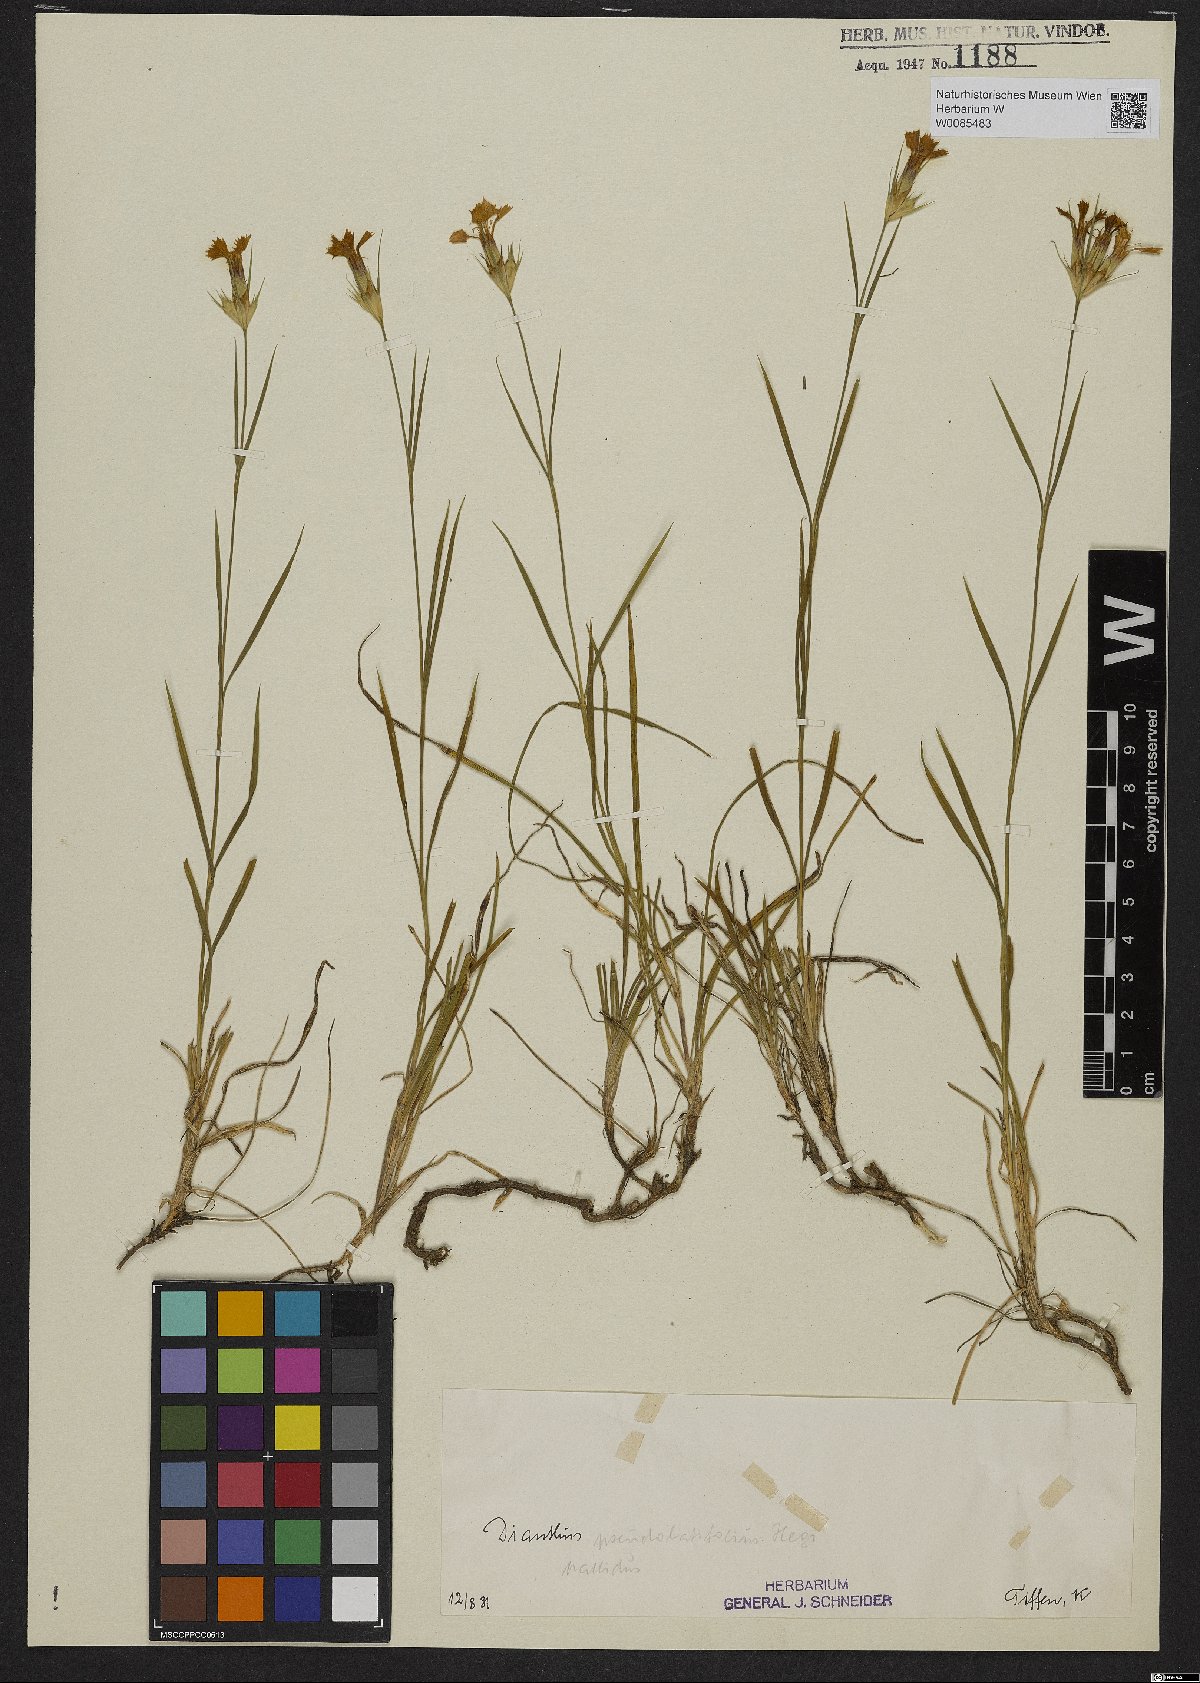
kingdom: Plantae
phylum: Tracheophyta
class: Magnoliopsida
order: Caryophyllales
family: Caryophyllaceae
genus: Dianthus
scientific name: Dianthus
